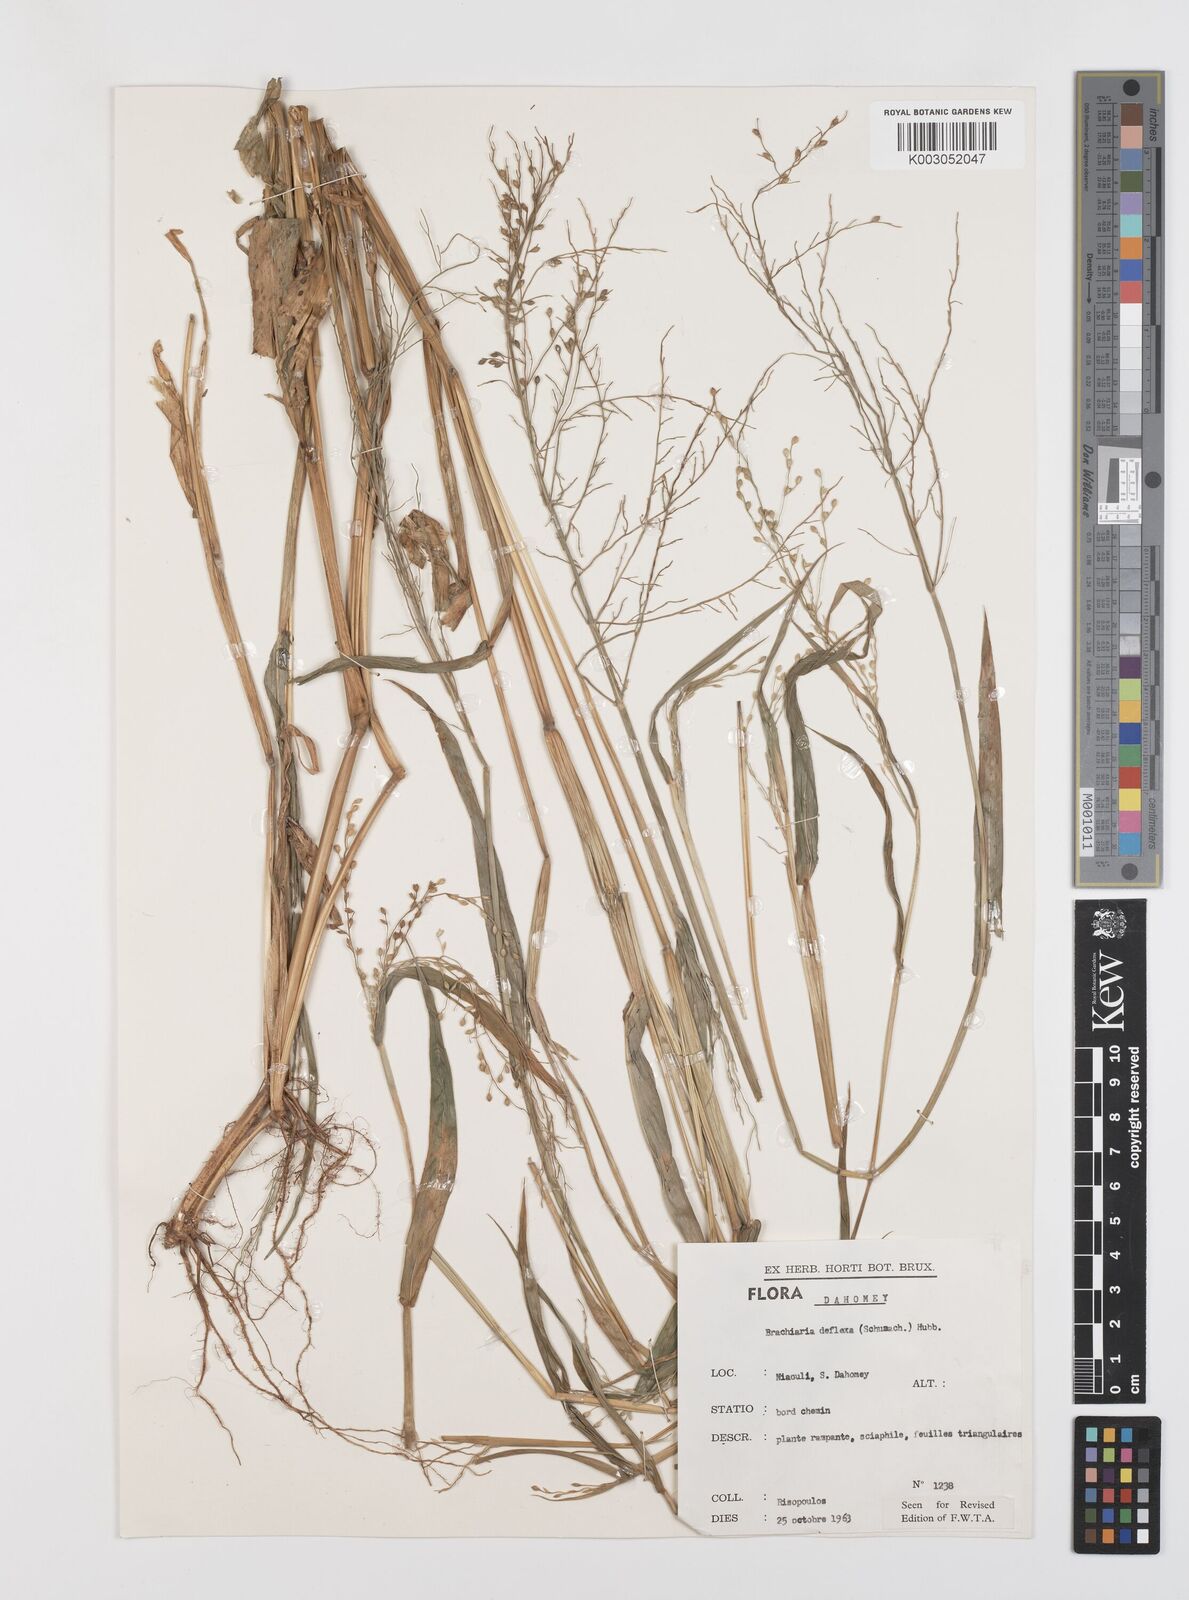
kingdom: Plantae
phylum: Tracheophyta
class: Liliopsida
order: Poales
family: Poaceae
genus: Urochloa
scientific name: Urochloa deflexa
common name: Guinea millet
